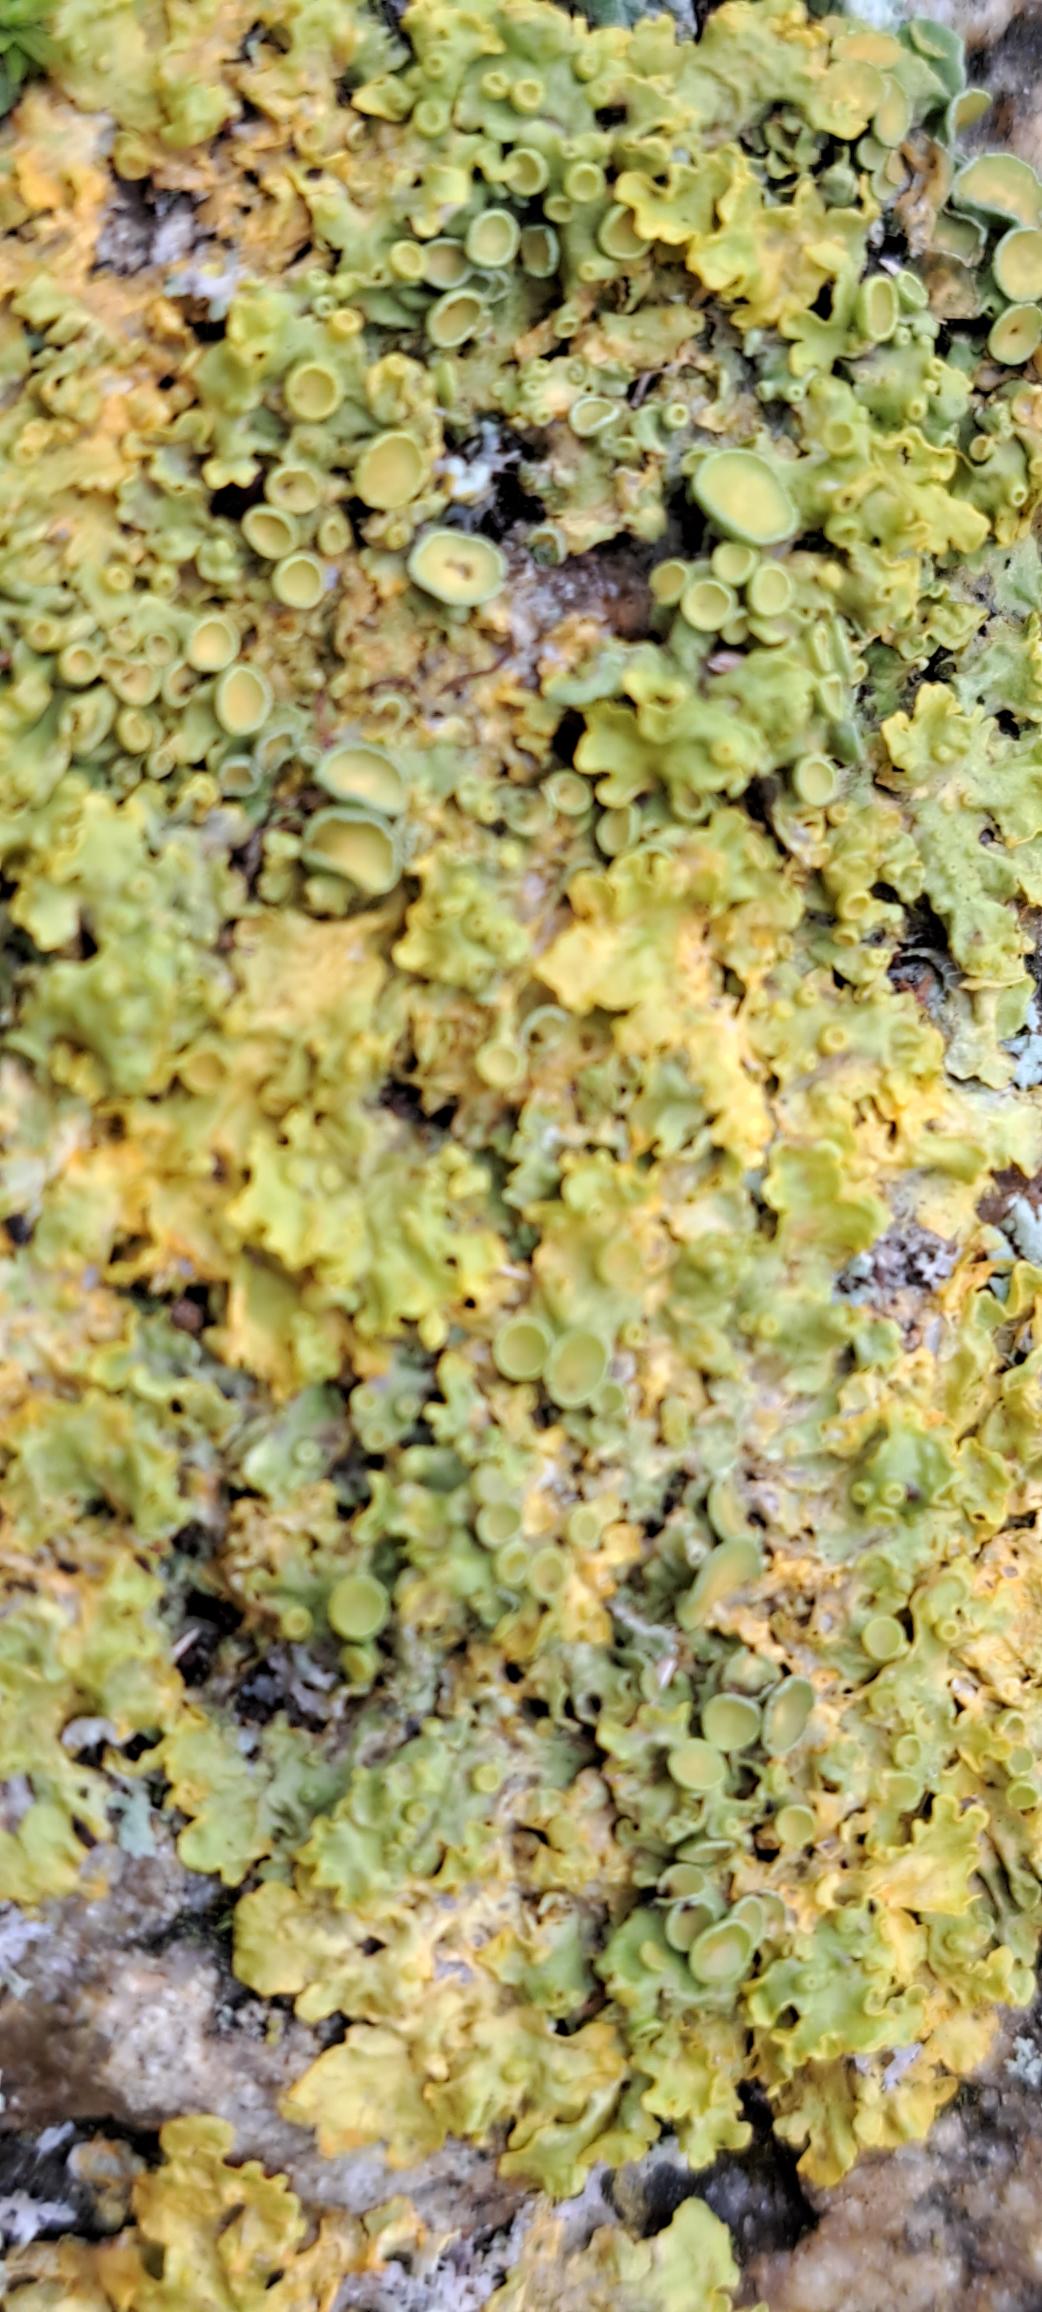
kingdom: Fungi
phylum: Ascomycota
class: Lecanoromycetes
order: Teloschistales
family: Teloschistaceae
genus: Xanthoria
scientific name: Xanthoria parietina
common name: Almindelig væggelav
